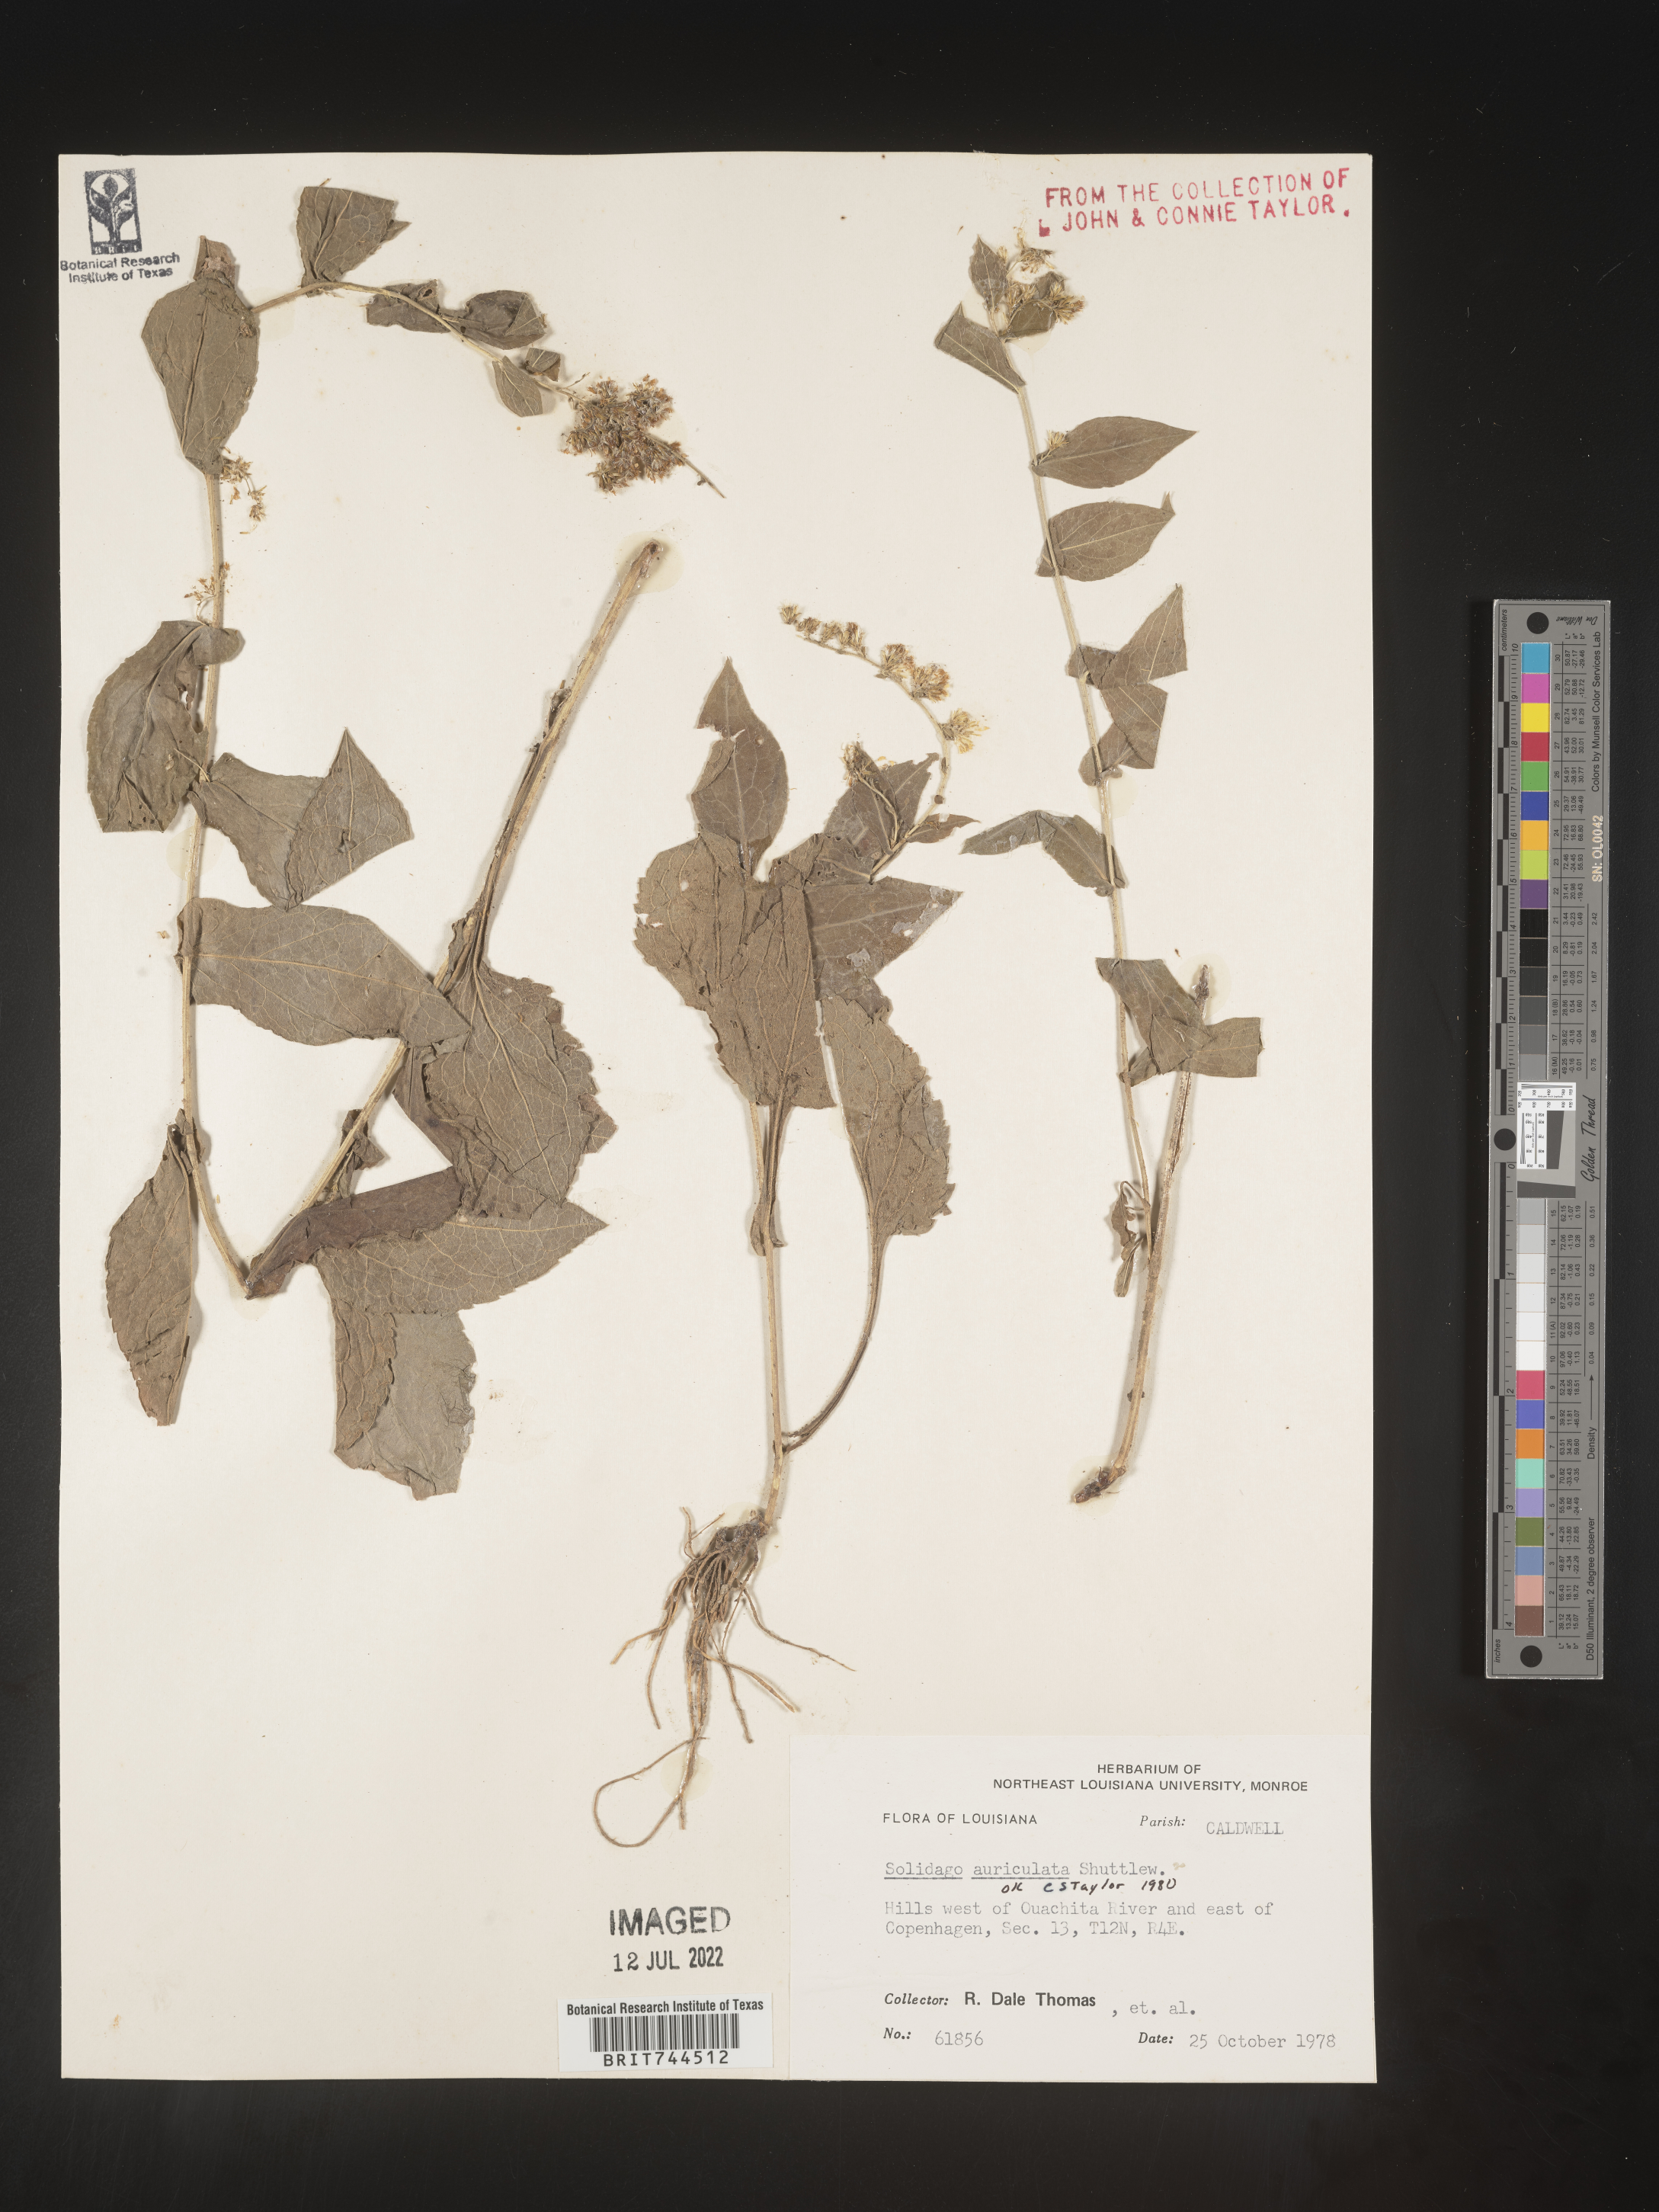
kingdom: Plantae
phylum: Tracheophyta
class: Magnoliopsida
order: Asterales
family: Asteraceae
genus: Solidago
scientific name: Solidago auriculata
